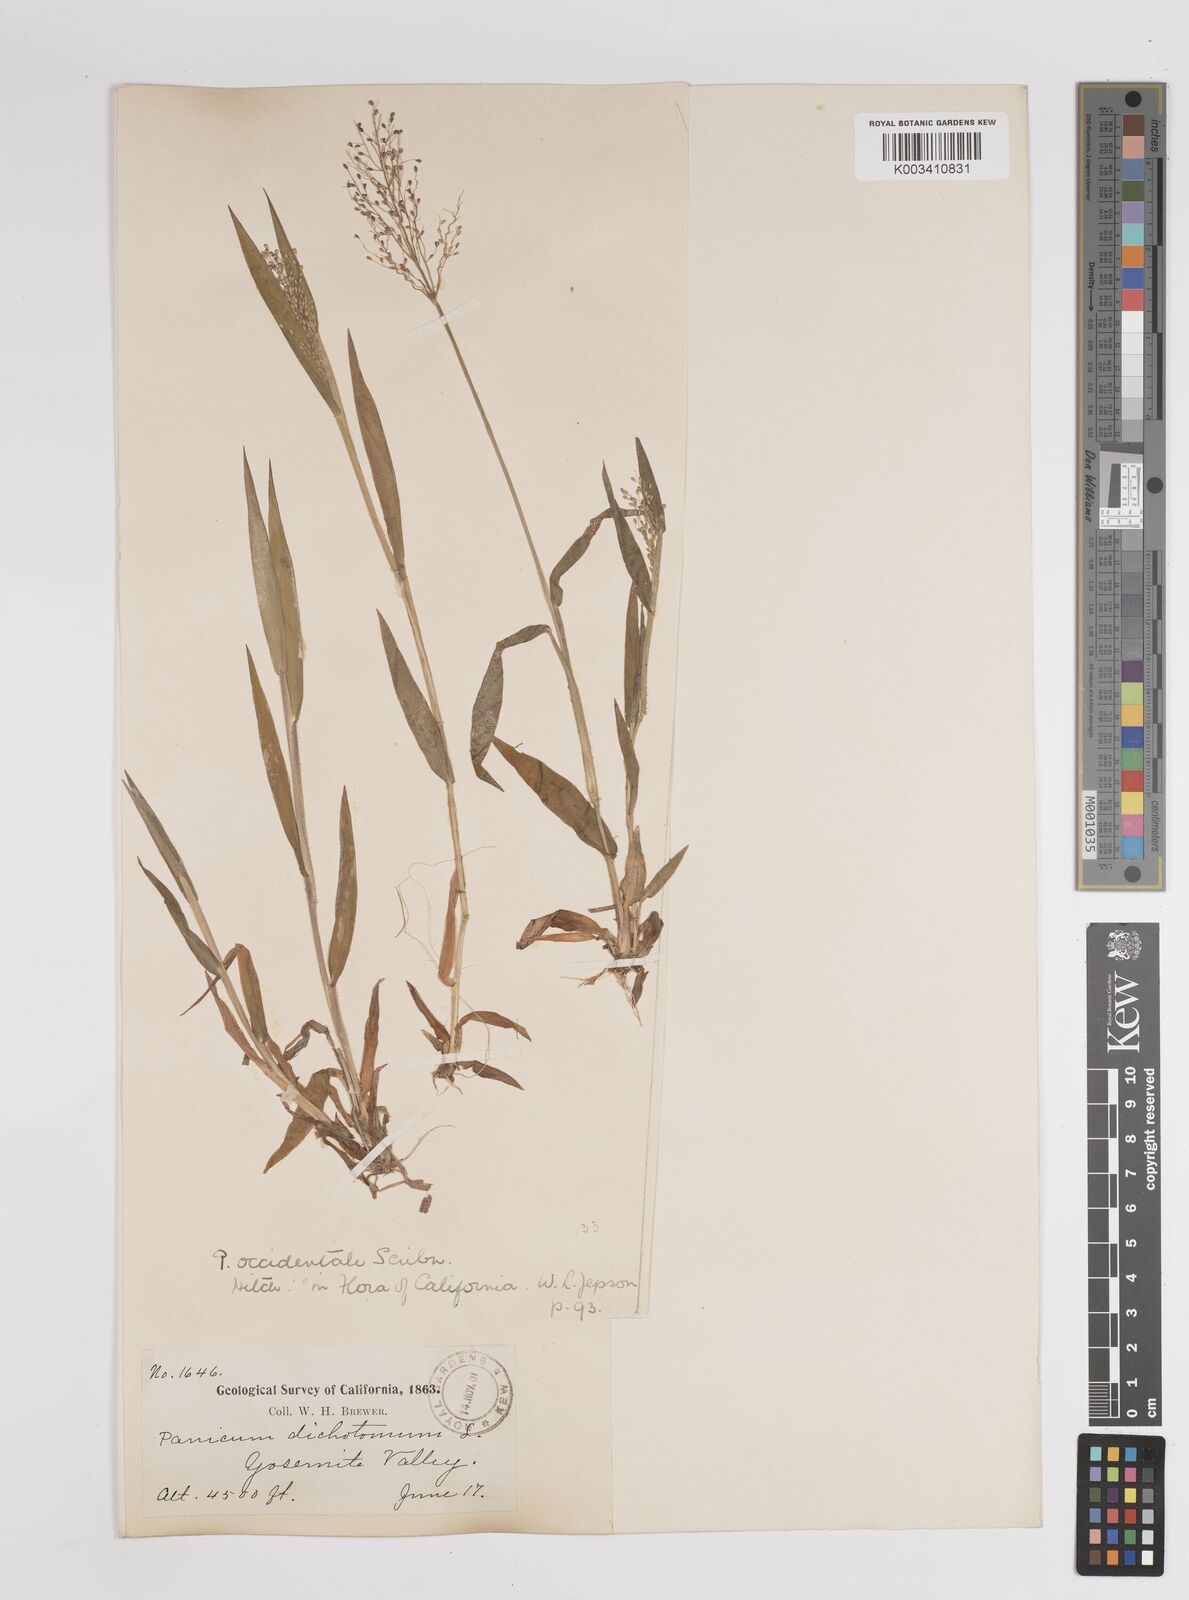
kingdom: Plantae
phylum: Tracheophyta
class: Liliopsida
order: Poales
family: Poaceae
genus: Dichanthelium
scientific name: Dichanthelium implicatum
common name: Slender-stemmed panicgrass
